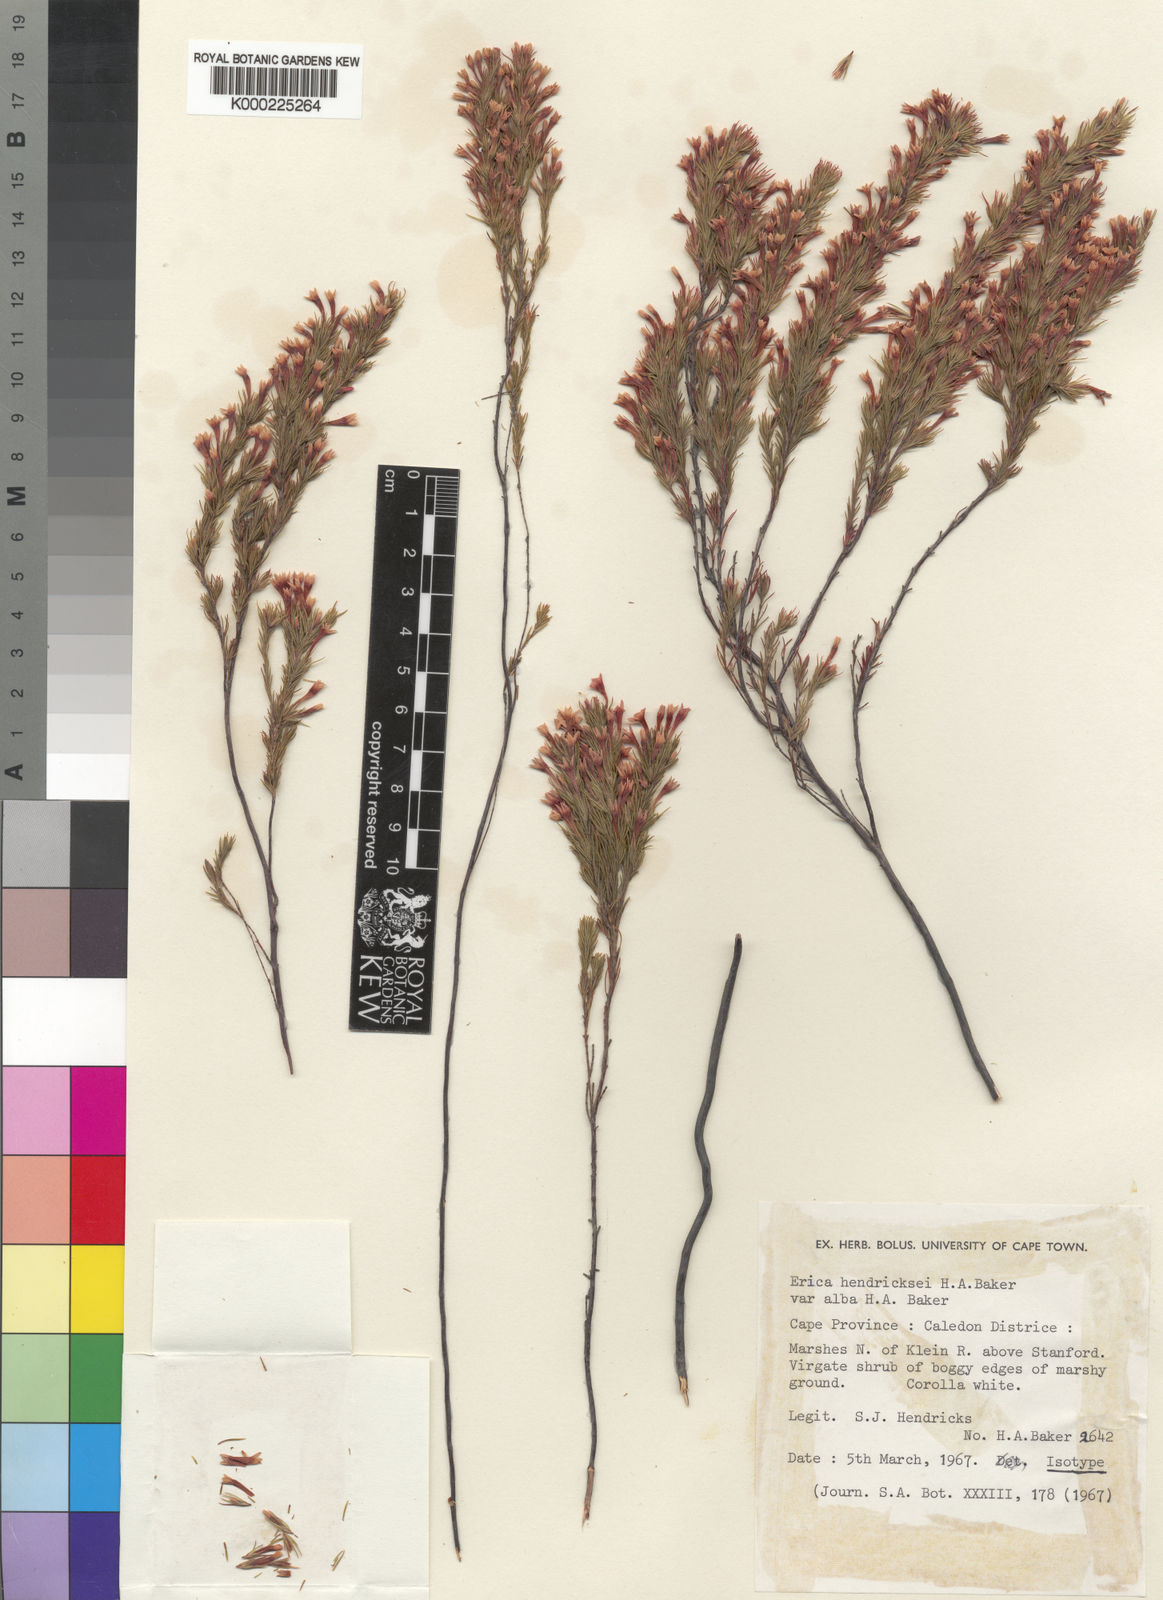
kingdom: Plantae
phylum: Tracheophyta
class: Magnoliopsida
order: Ericales
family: Ericaceae
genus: Erica
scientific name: Erica hendricksei
